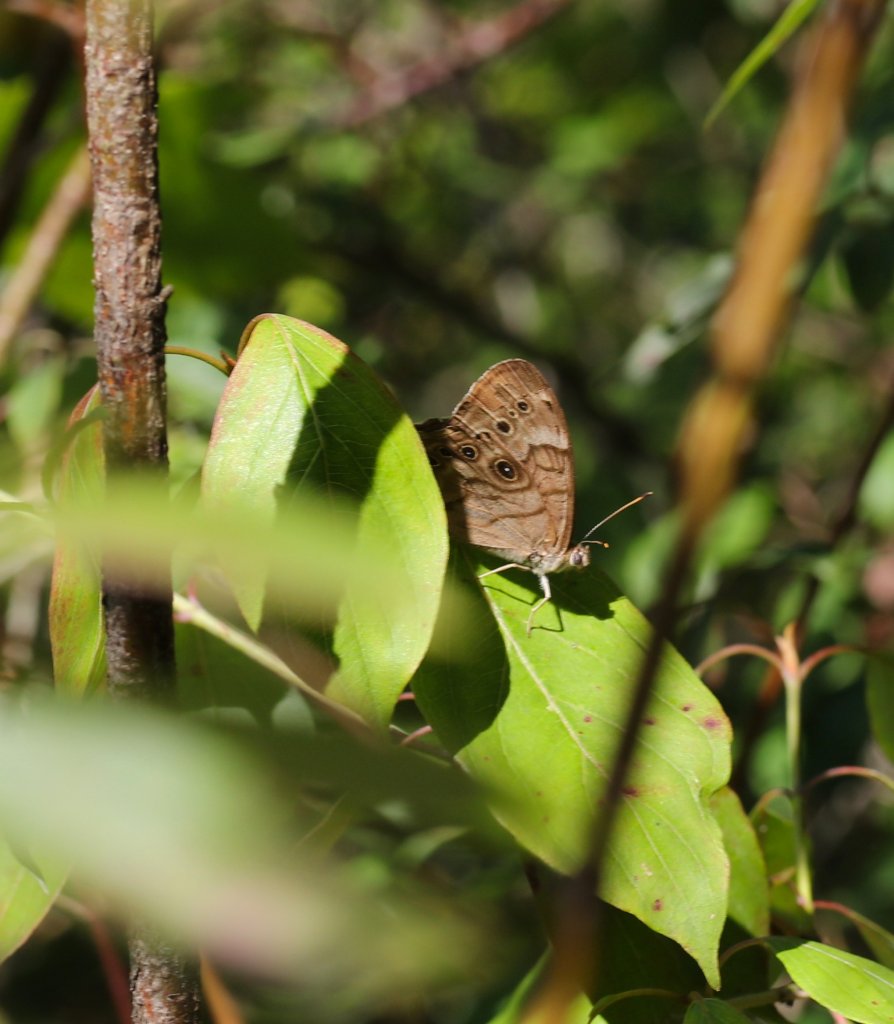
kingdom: Animalia
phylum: Arthropoda
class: Insecta
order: Lepidoptera
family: Nymphalidae
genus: Lethe
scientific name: Lethe anthedon
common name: Northern Pearly-Eye
